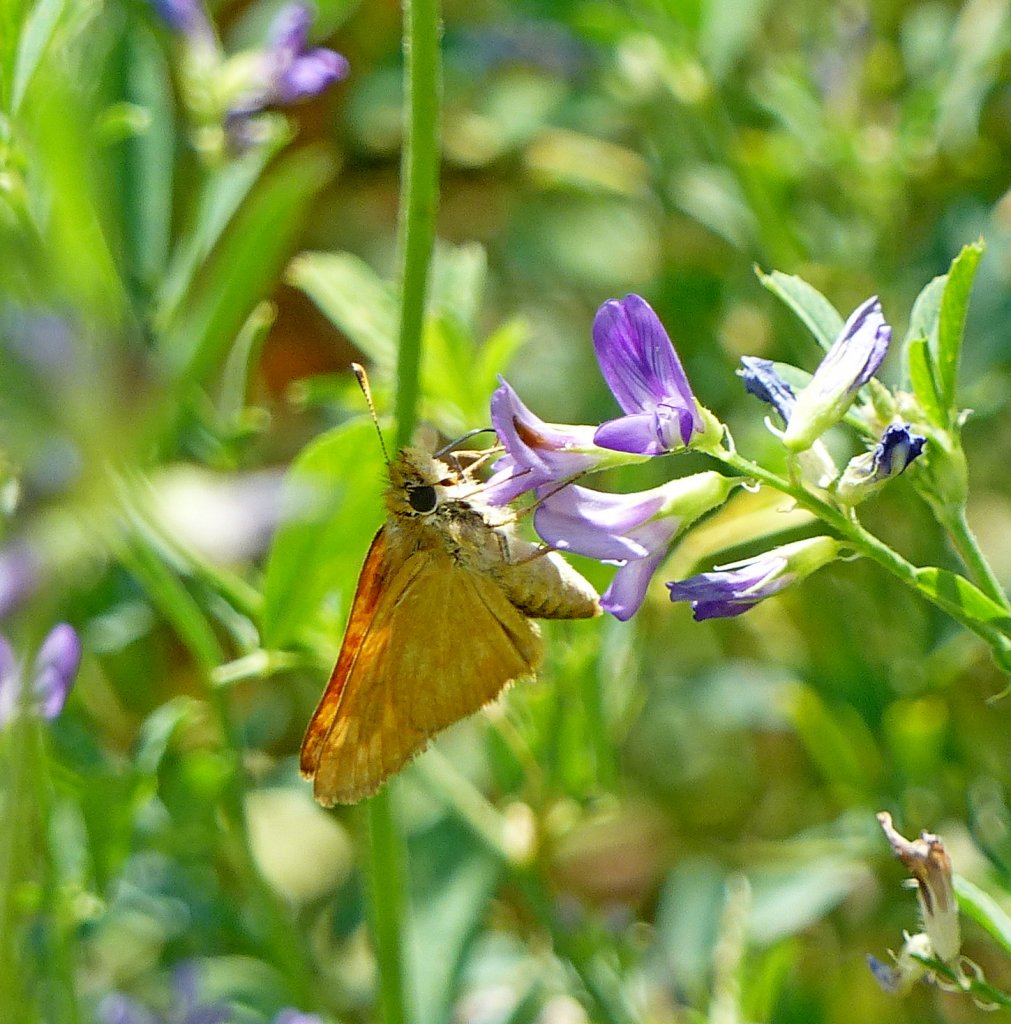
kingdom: Animalia
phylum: Arthropoda
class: Insecta
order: Lepidoptera
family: Hesperiidae
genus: Ochlodes
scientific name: Ochlodes sylvanoides
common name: Woodland Skipper
